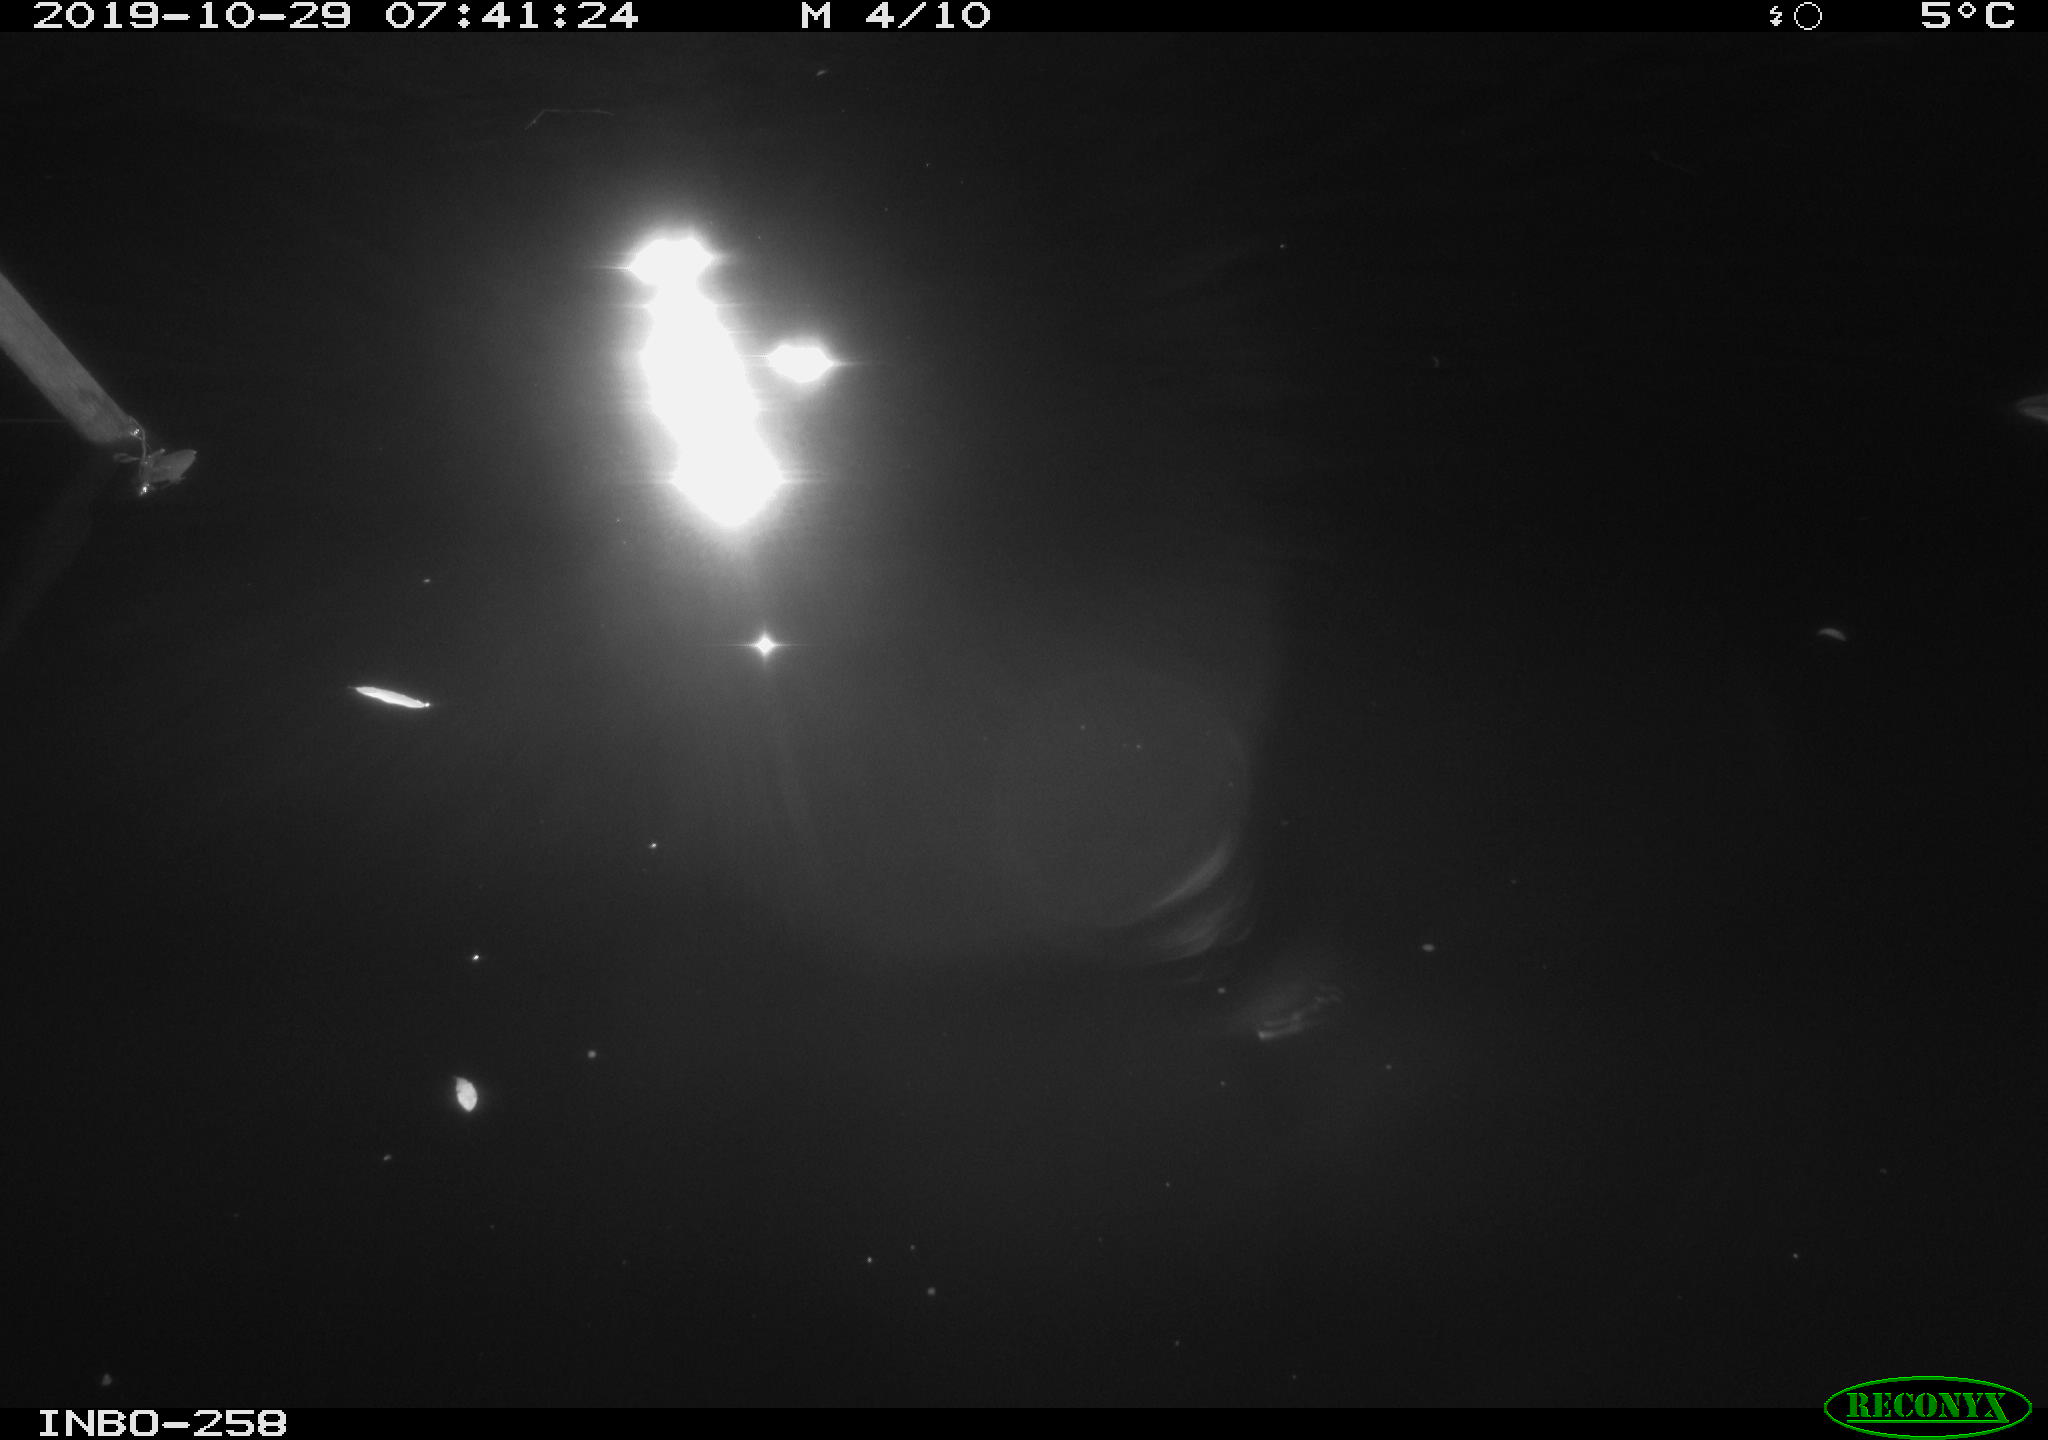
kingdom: Animalia
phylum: Chordata
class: Aves
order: Anseriformes
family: Anatidae
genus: Anas
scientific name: Anas platyrhynchos
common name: Mallard
